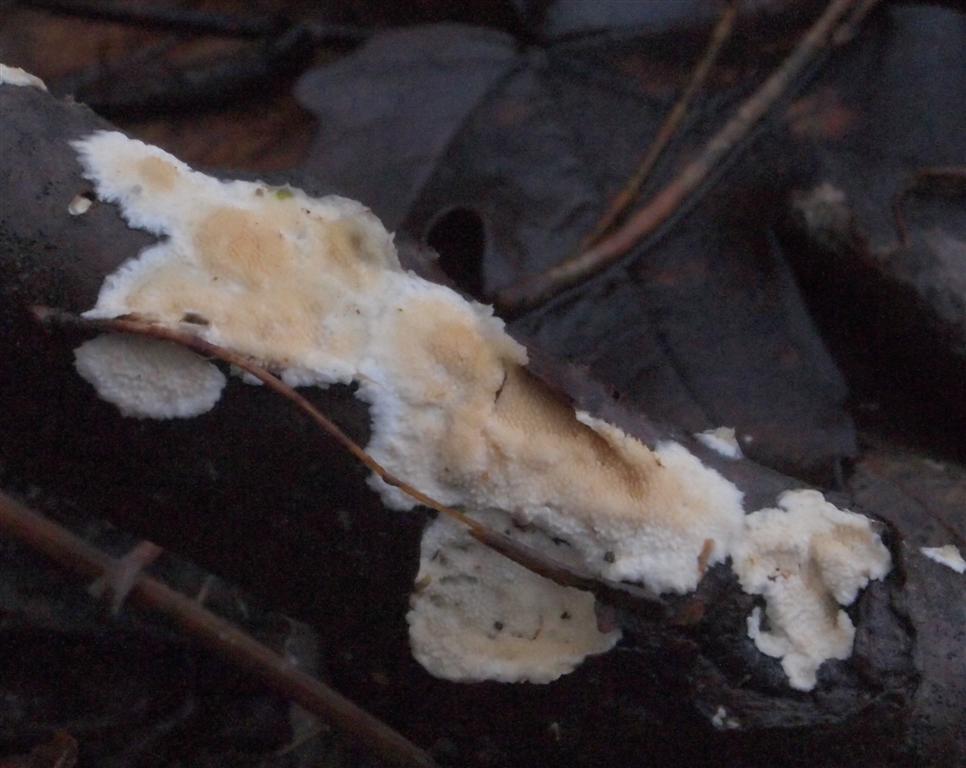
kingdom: Fungi
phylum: Basidiomycota
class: Agaricomycetes
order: Polyporales
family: Steccherinaceae
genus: Steccherinum
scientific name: Steccherinum ochraceum
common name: almindelig skønpig
